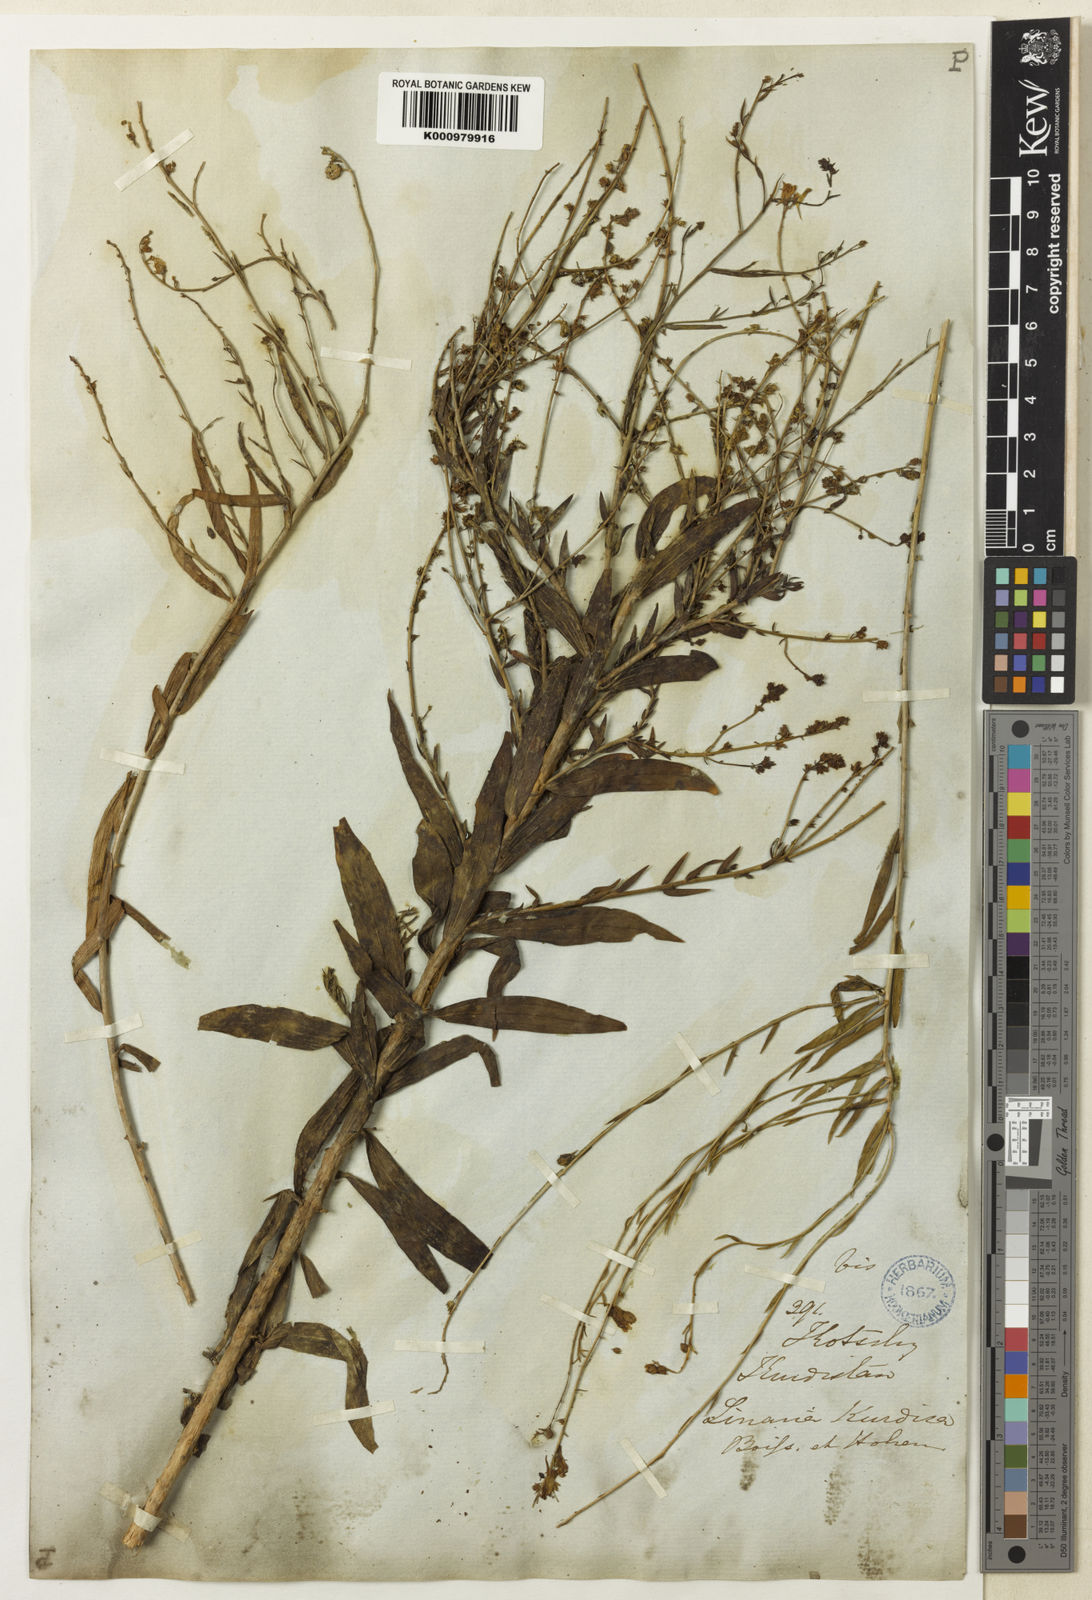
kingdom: Plantae
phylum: Tracheophyta
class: Magnoliopsida
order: Lamiales
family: Plantaginaceae
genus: Linaria
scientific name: Linaria kurdica
